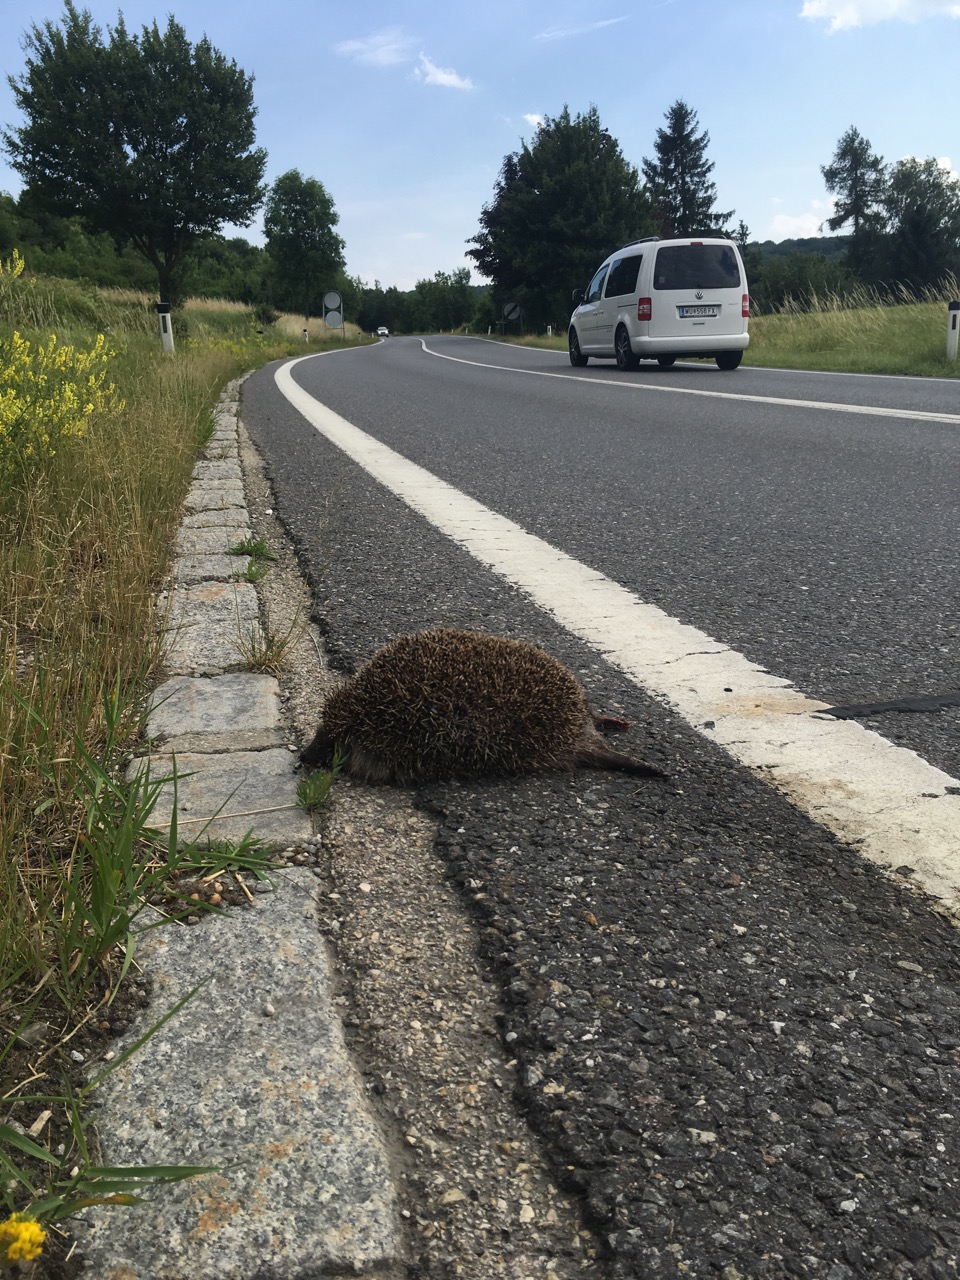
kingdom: Animalia
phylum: Chordata
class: Mammalia
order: Erinaceomorpha
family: Erinaceidae
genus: Erinaceus
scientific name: Erinaceus
